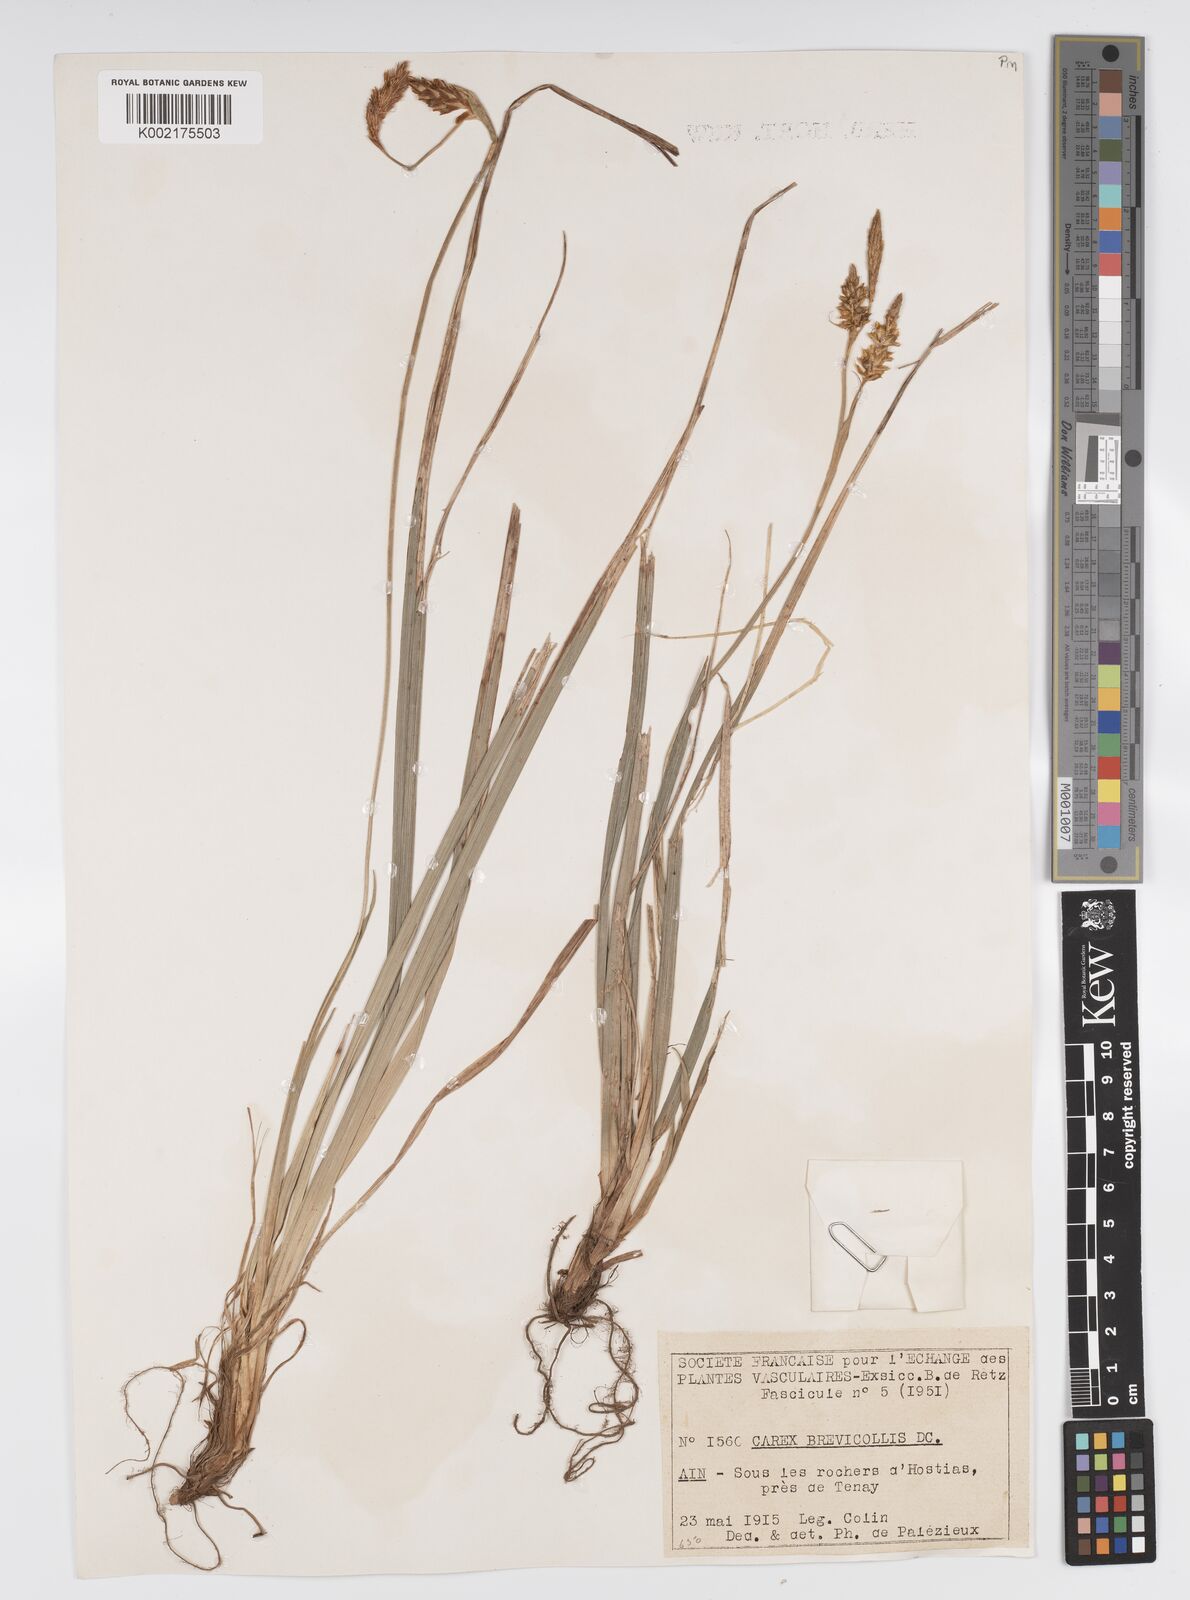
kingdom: Plantae
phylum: Tracheophyta
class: Liliopsida
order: Poales
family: Cyperaceae
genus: Carex
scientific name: Carex brevicollis
